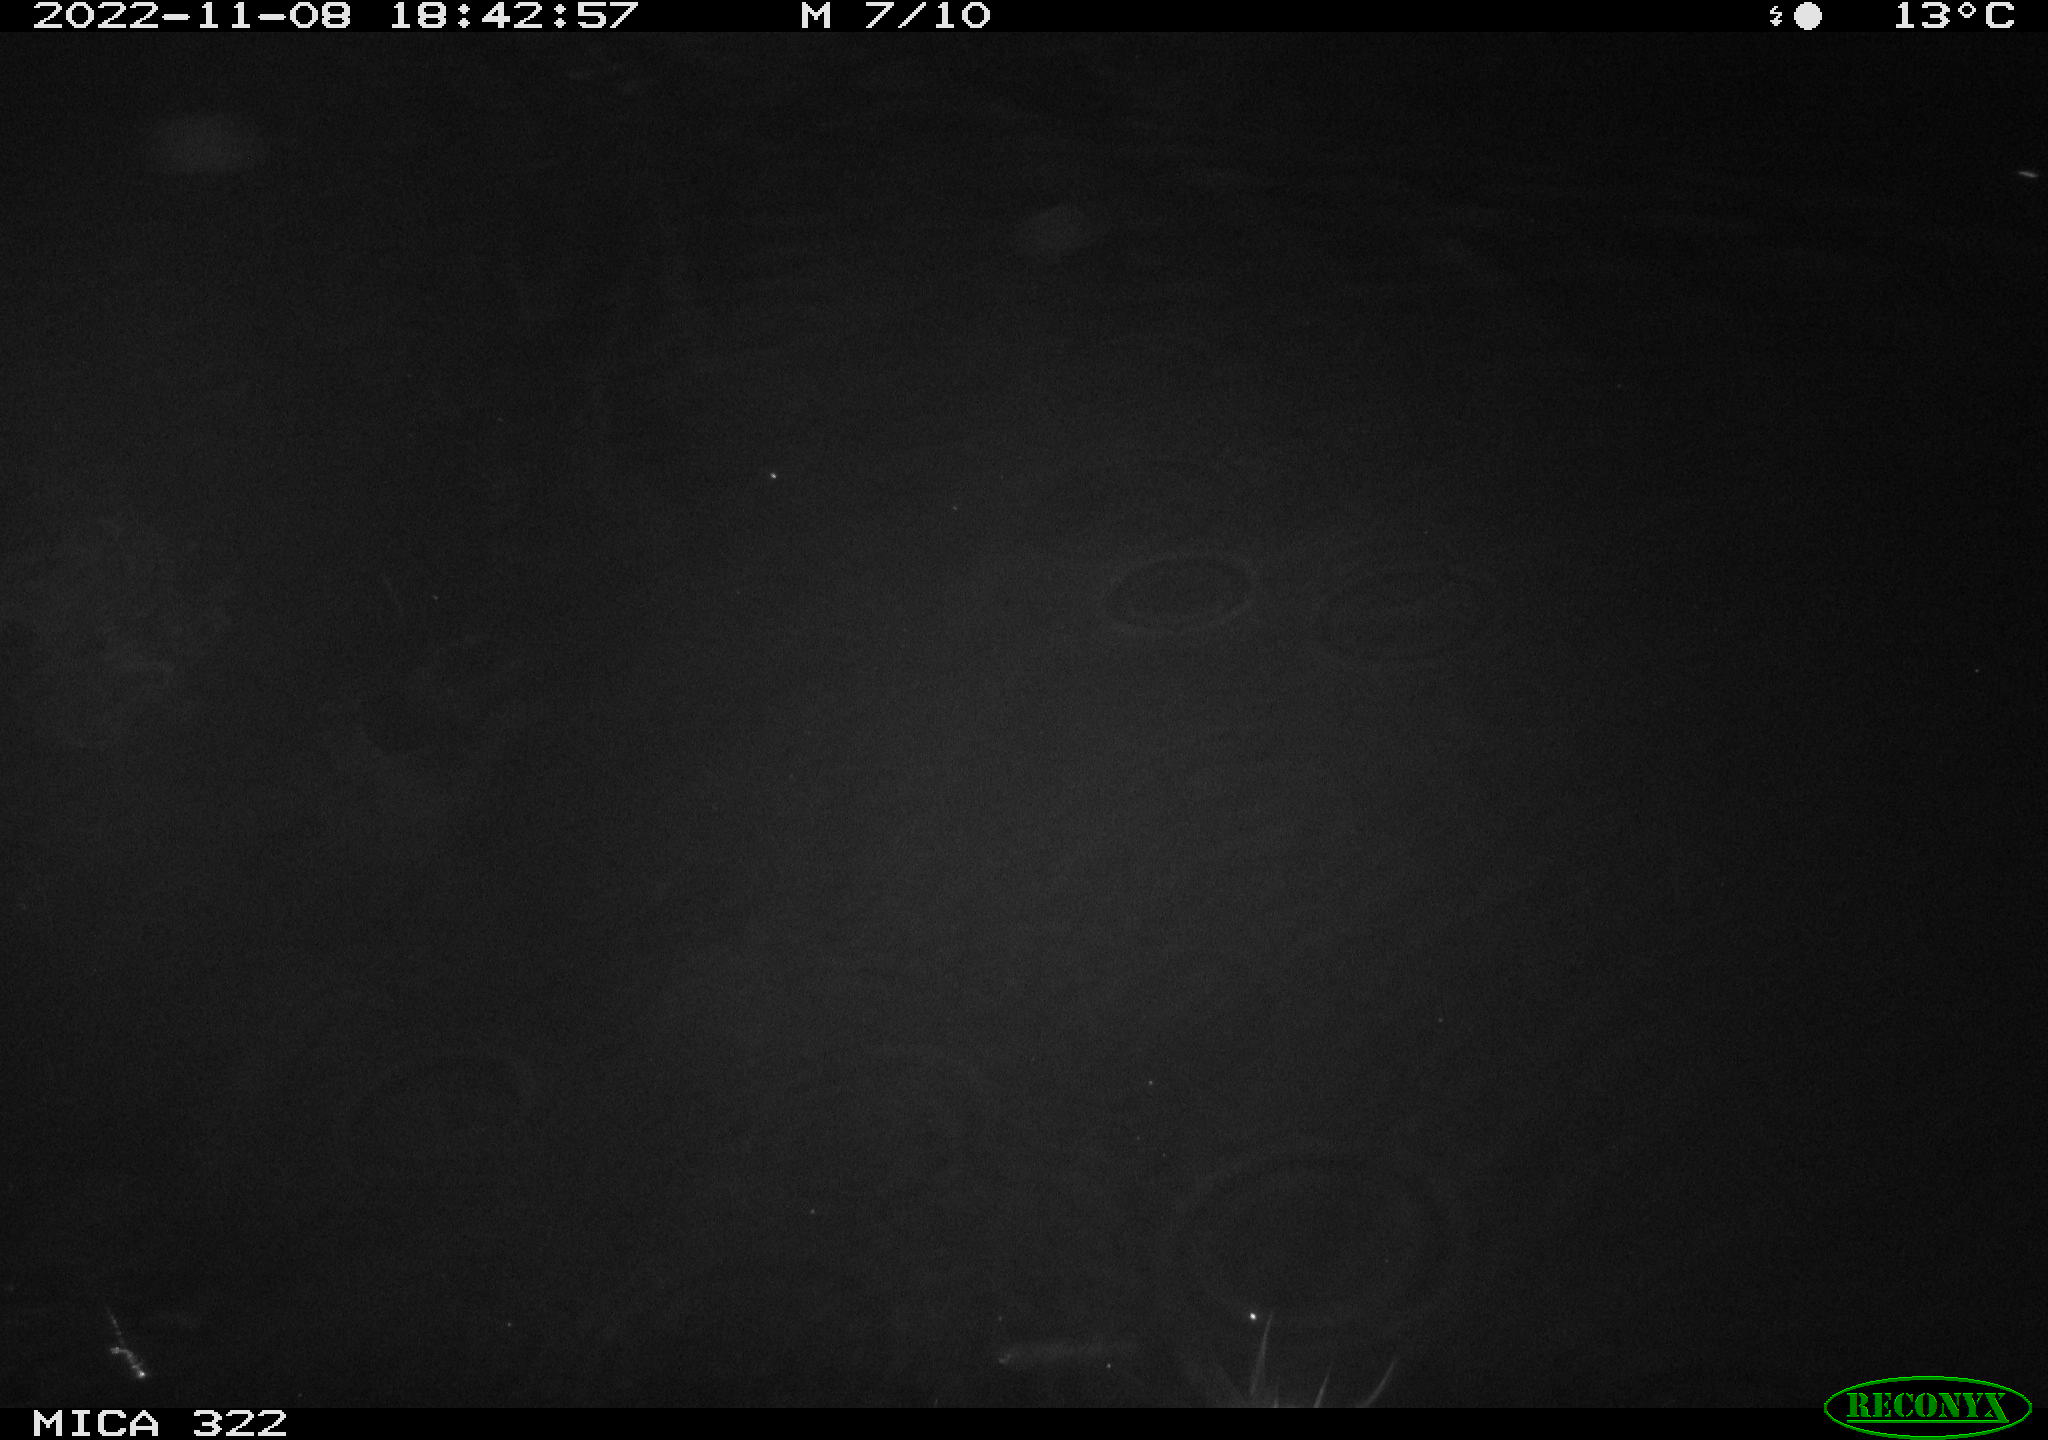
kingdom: Animalia
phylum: Chordata
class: Mammalia
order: Rodentia
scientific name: Rodentia
